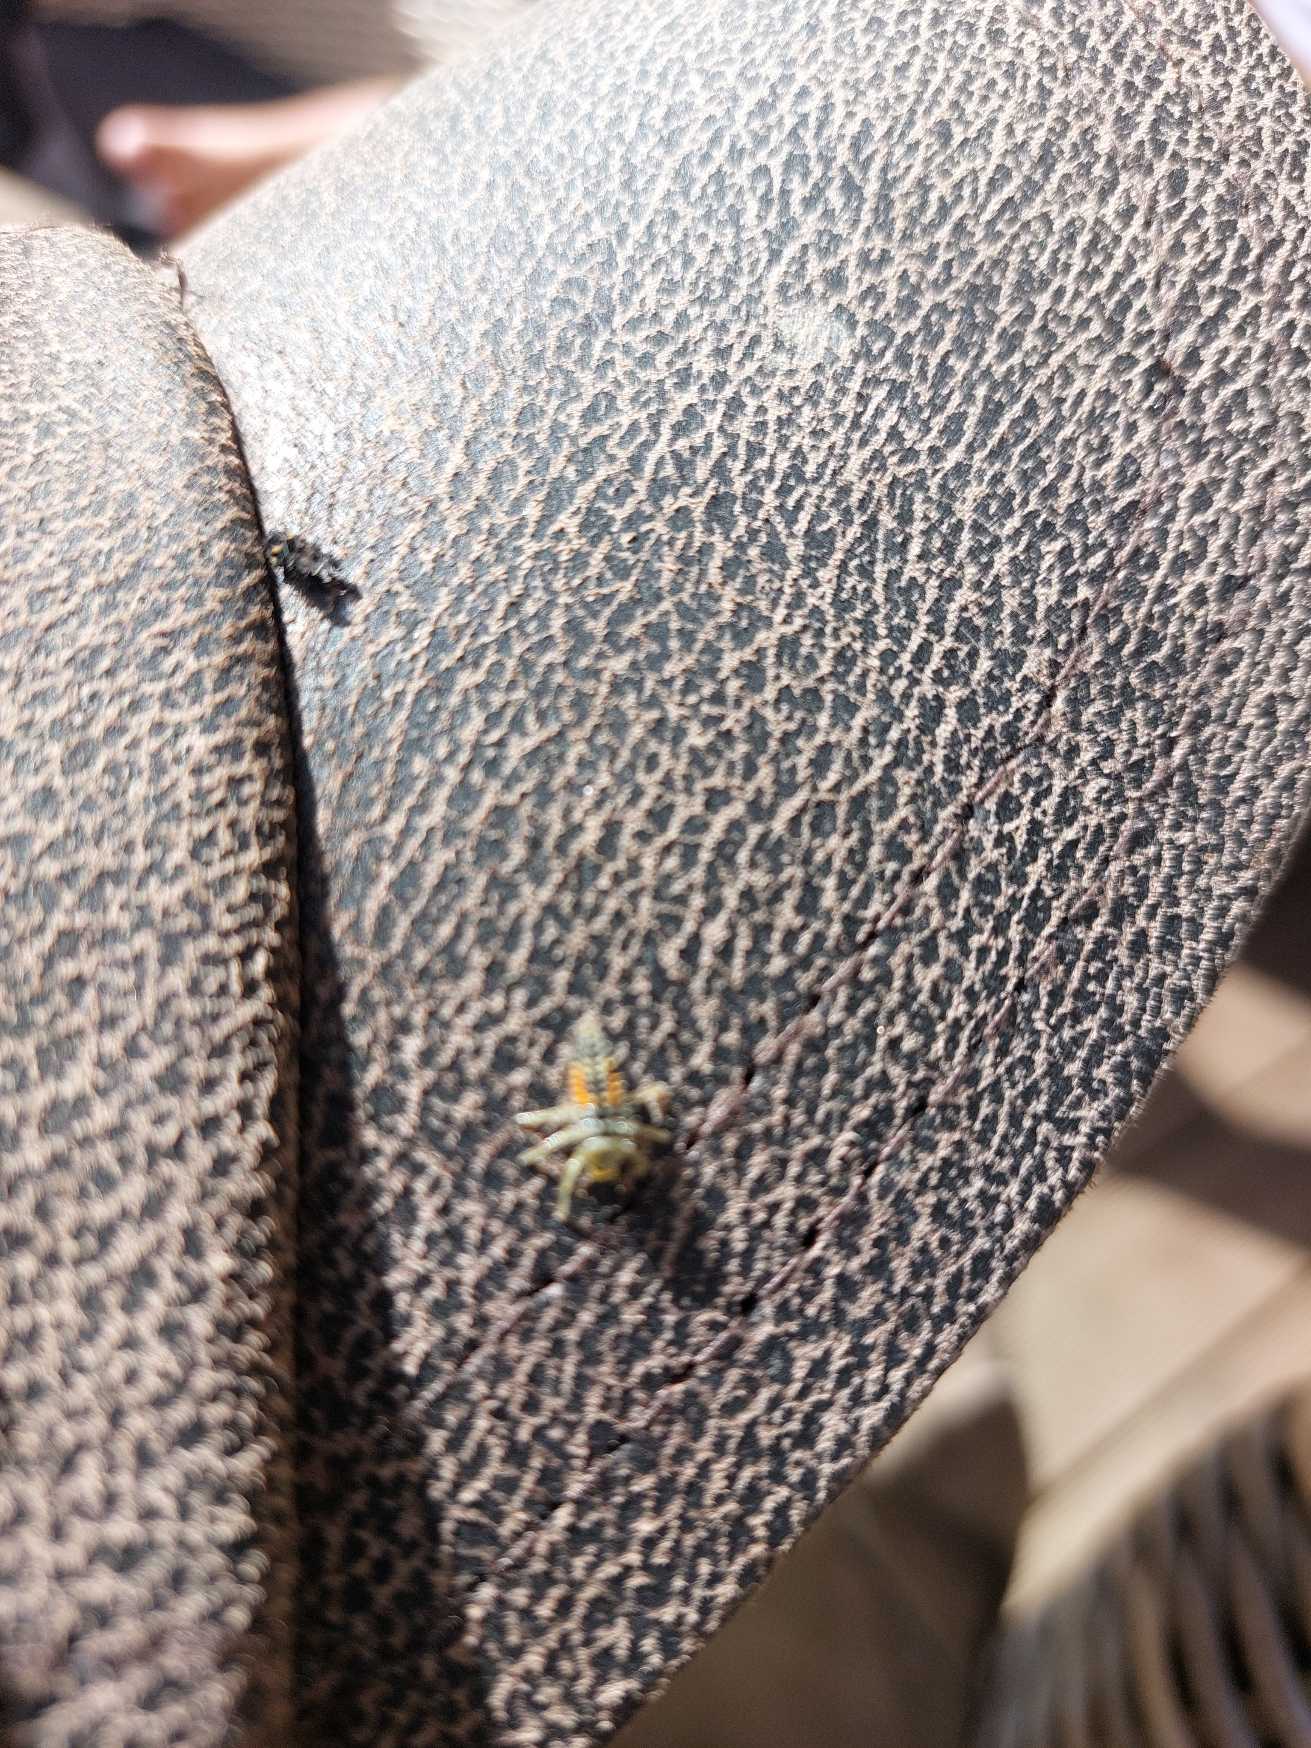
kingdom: Animalia
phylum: Arthropoda
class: Insecta
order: Coleoptera
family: Coccinellidae
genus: Harmonia
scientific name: Harmonia axyridis
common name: Harlekinmariehøne
